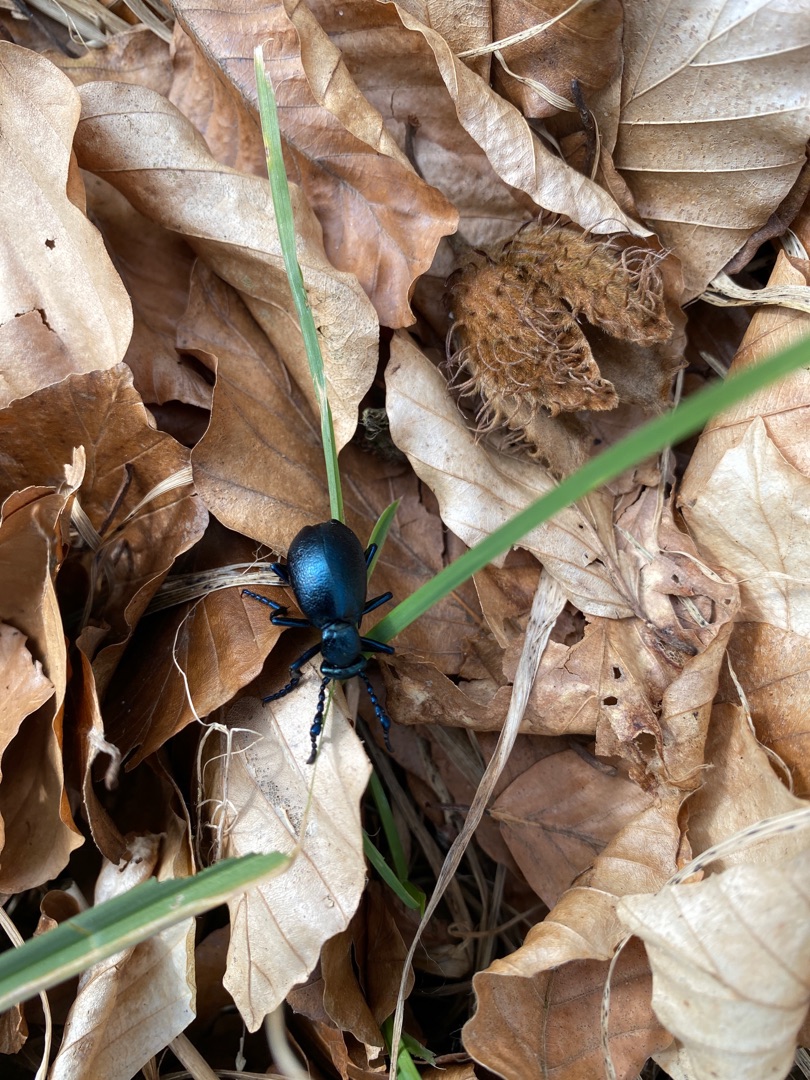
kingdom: Animalia
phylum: Arthropoda
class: Insecta
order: Coleoptera
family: Meloidae
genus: Meloe
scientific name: Meloe violaceus
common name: Blå oliebille
